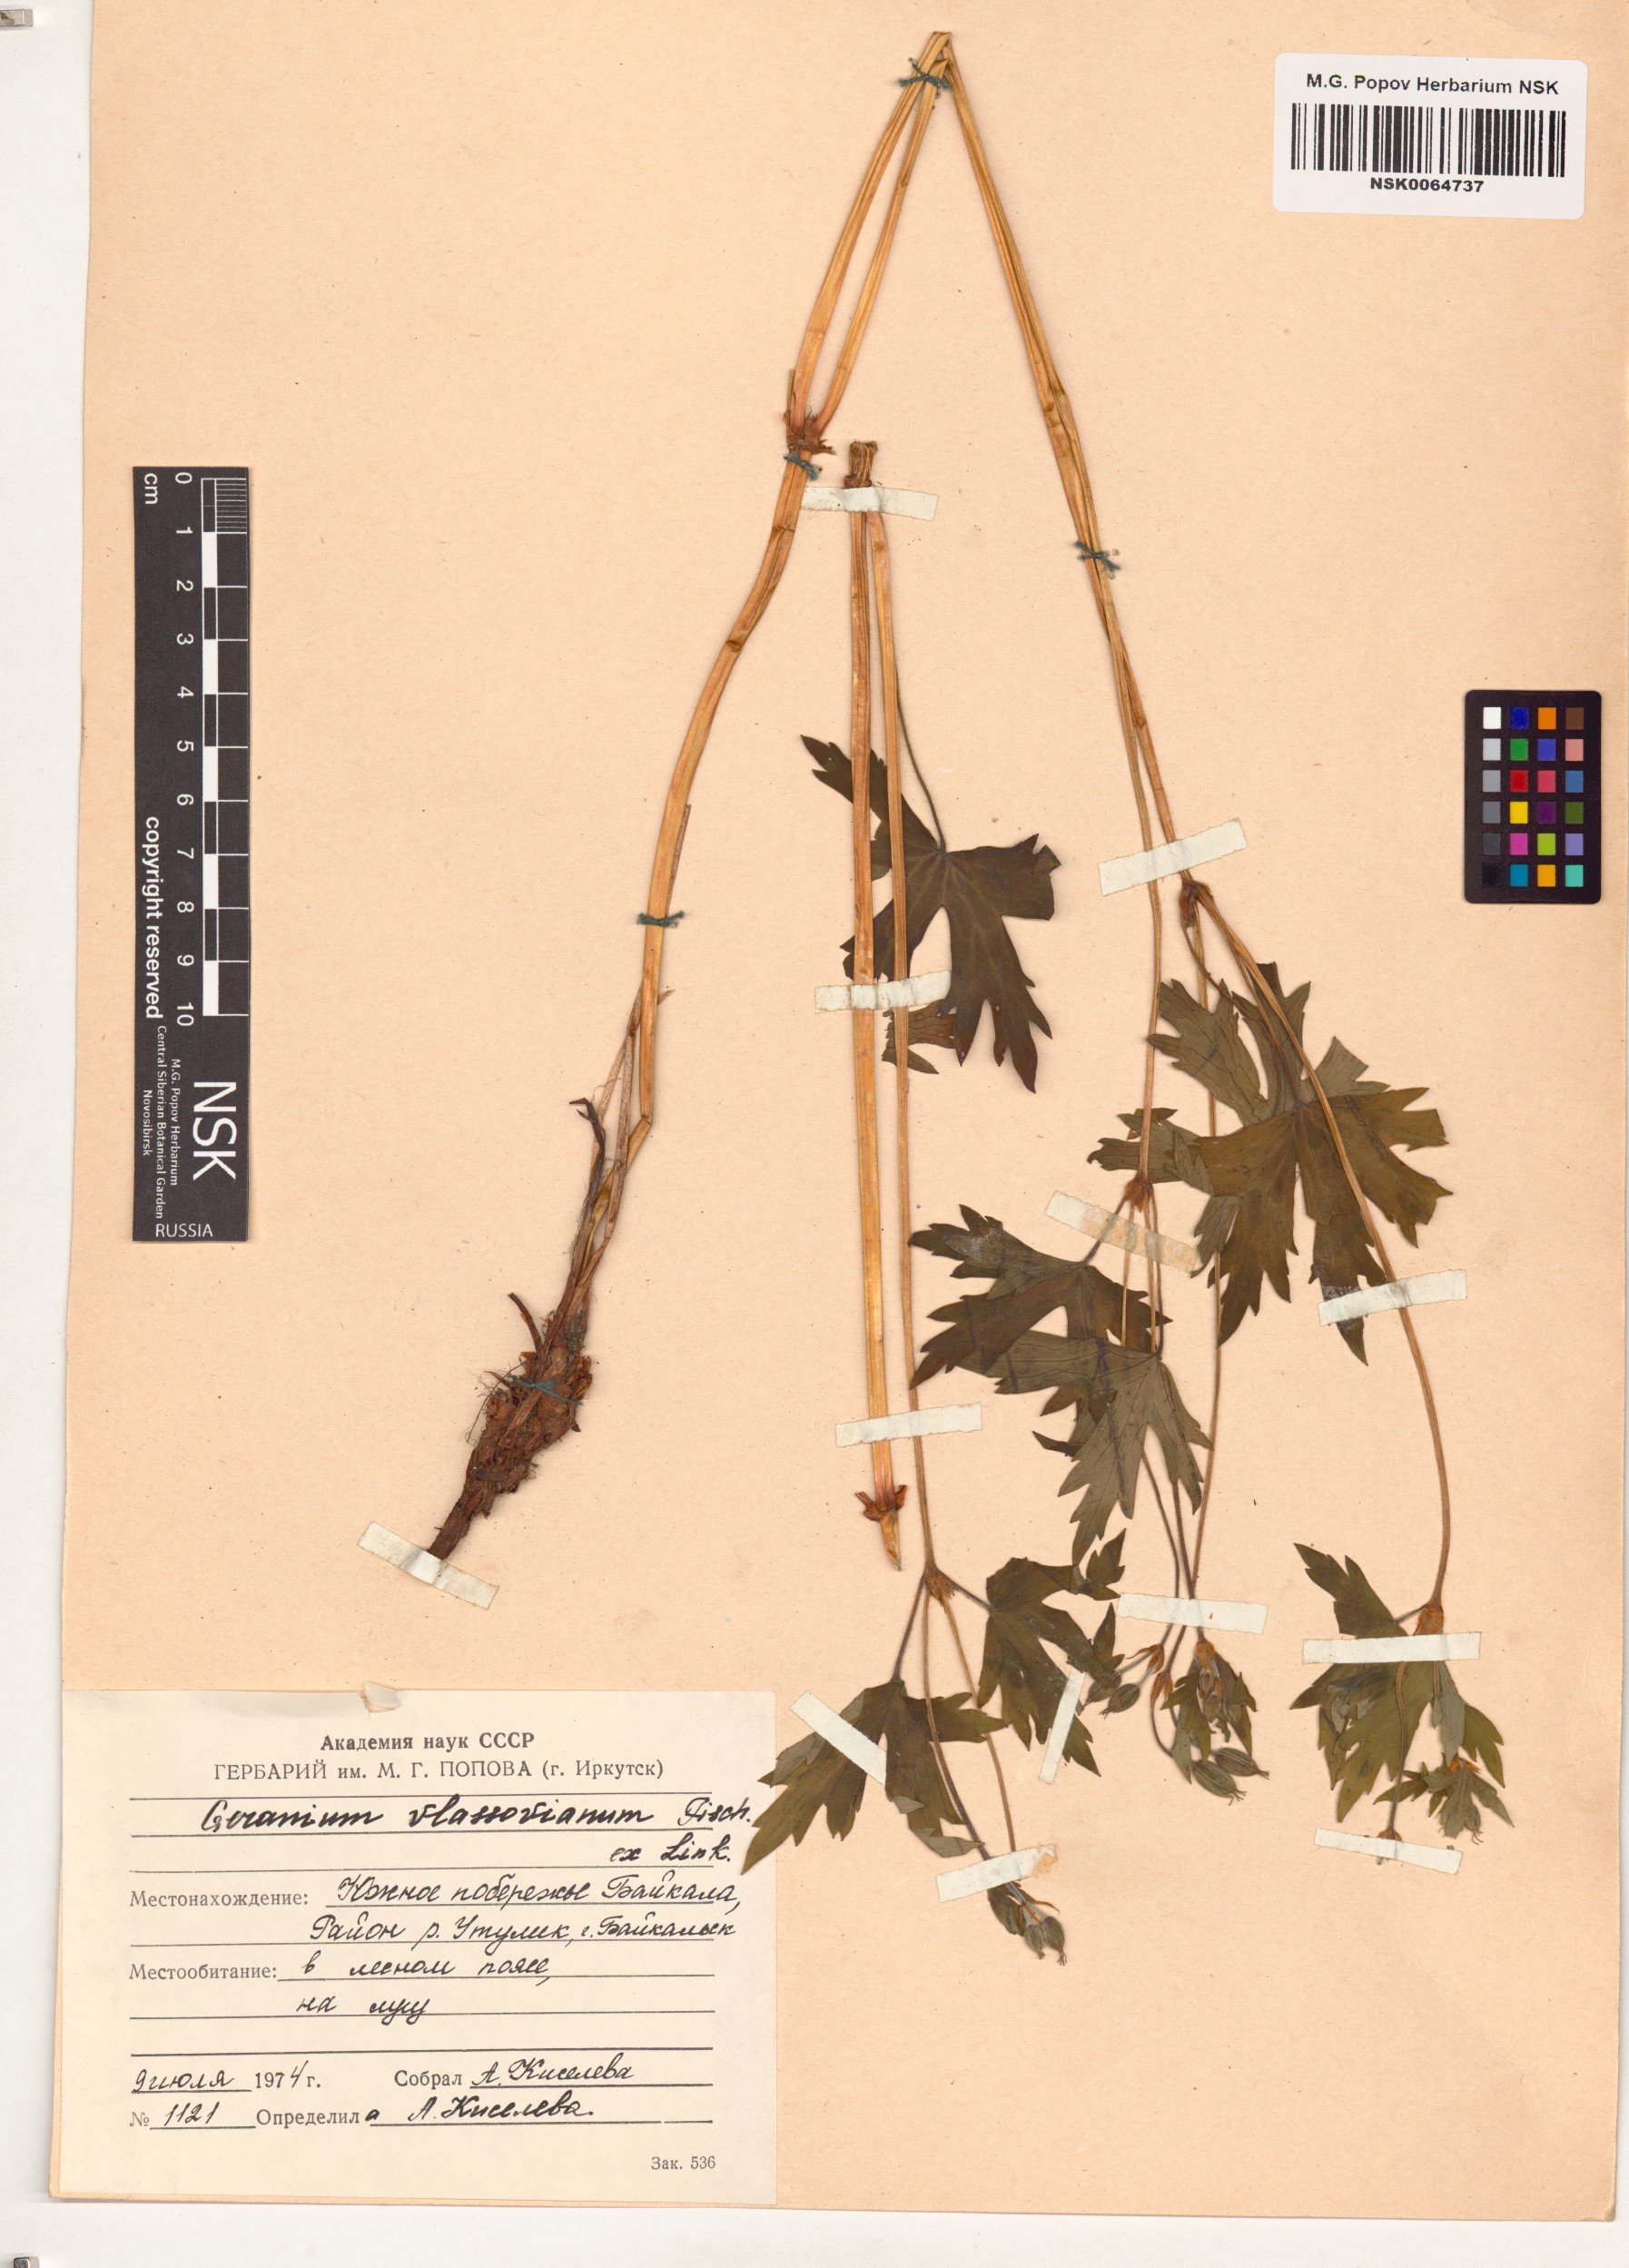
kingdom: Plantae
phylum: Tracheophyta
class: Magnoliopsida
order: Geraniales
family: Geraniaceae
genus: Geranium
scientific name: Geranium wlassovianum
